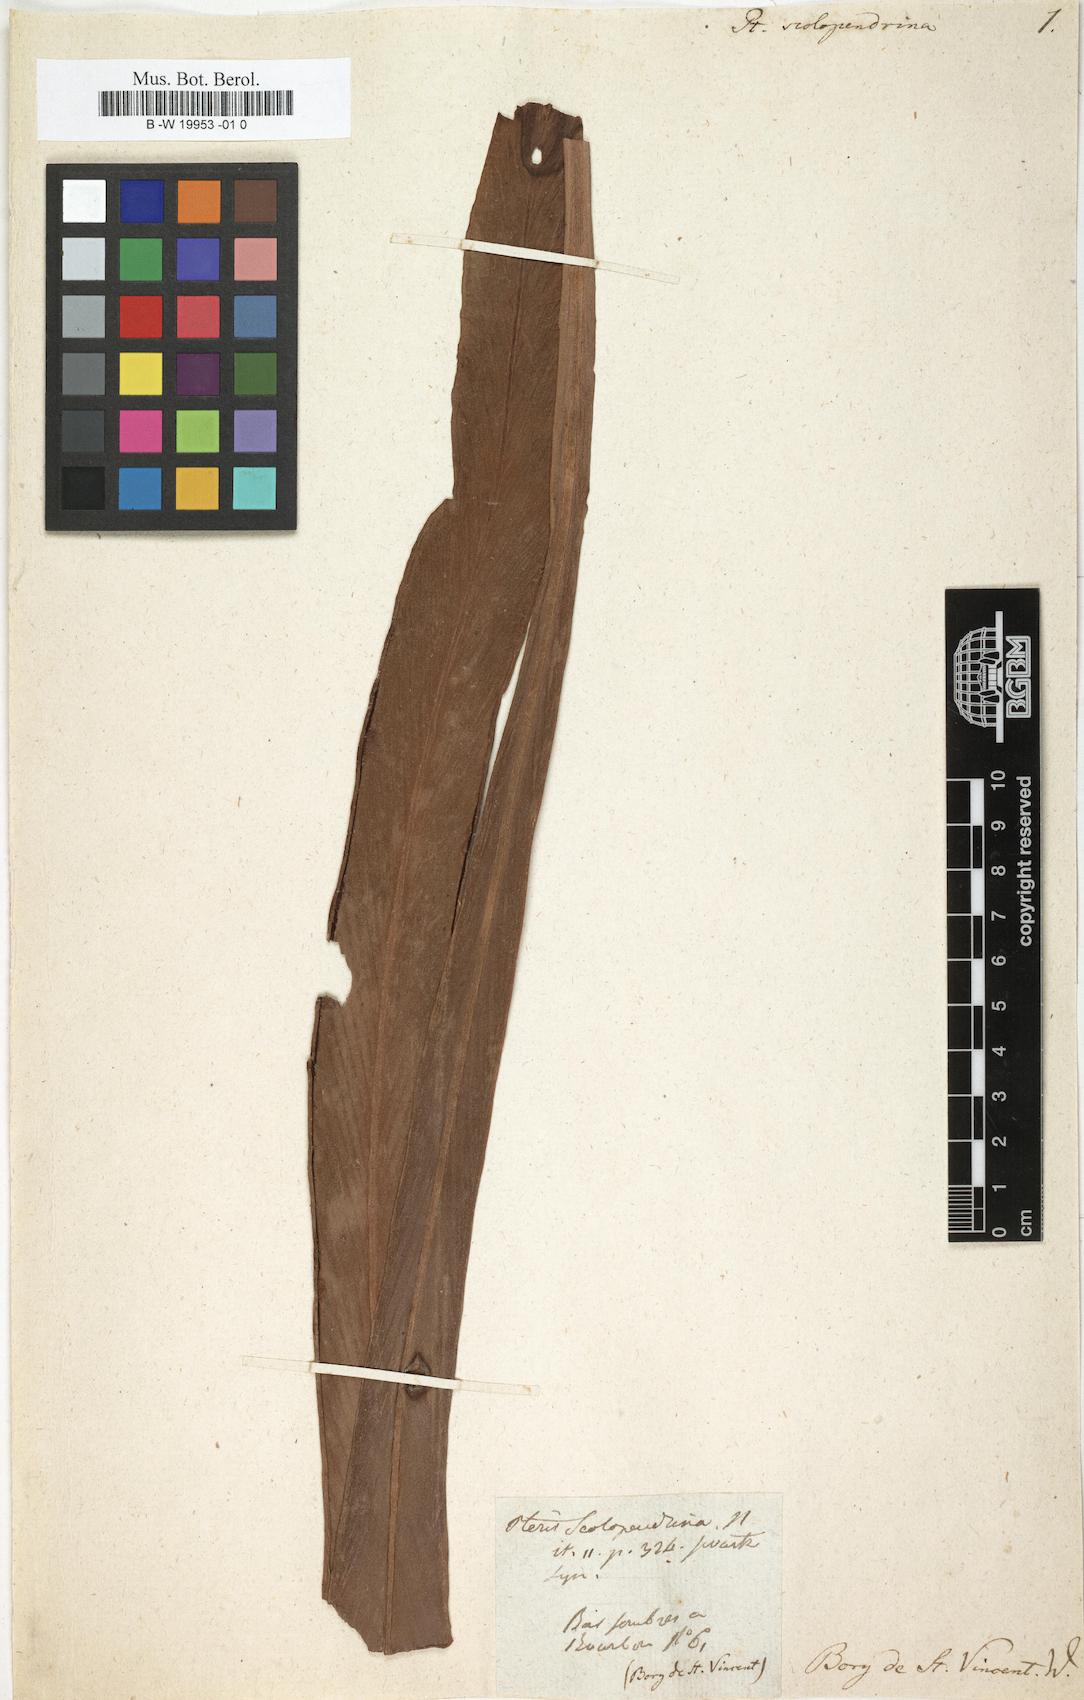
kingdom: Plantae
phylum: Tracheophyta
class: Polypodiopsida
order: Polypodiales
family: Pteridaceae
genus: Haplopteris
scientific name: Haplopteris scolopendrina
